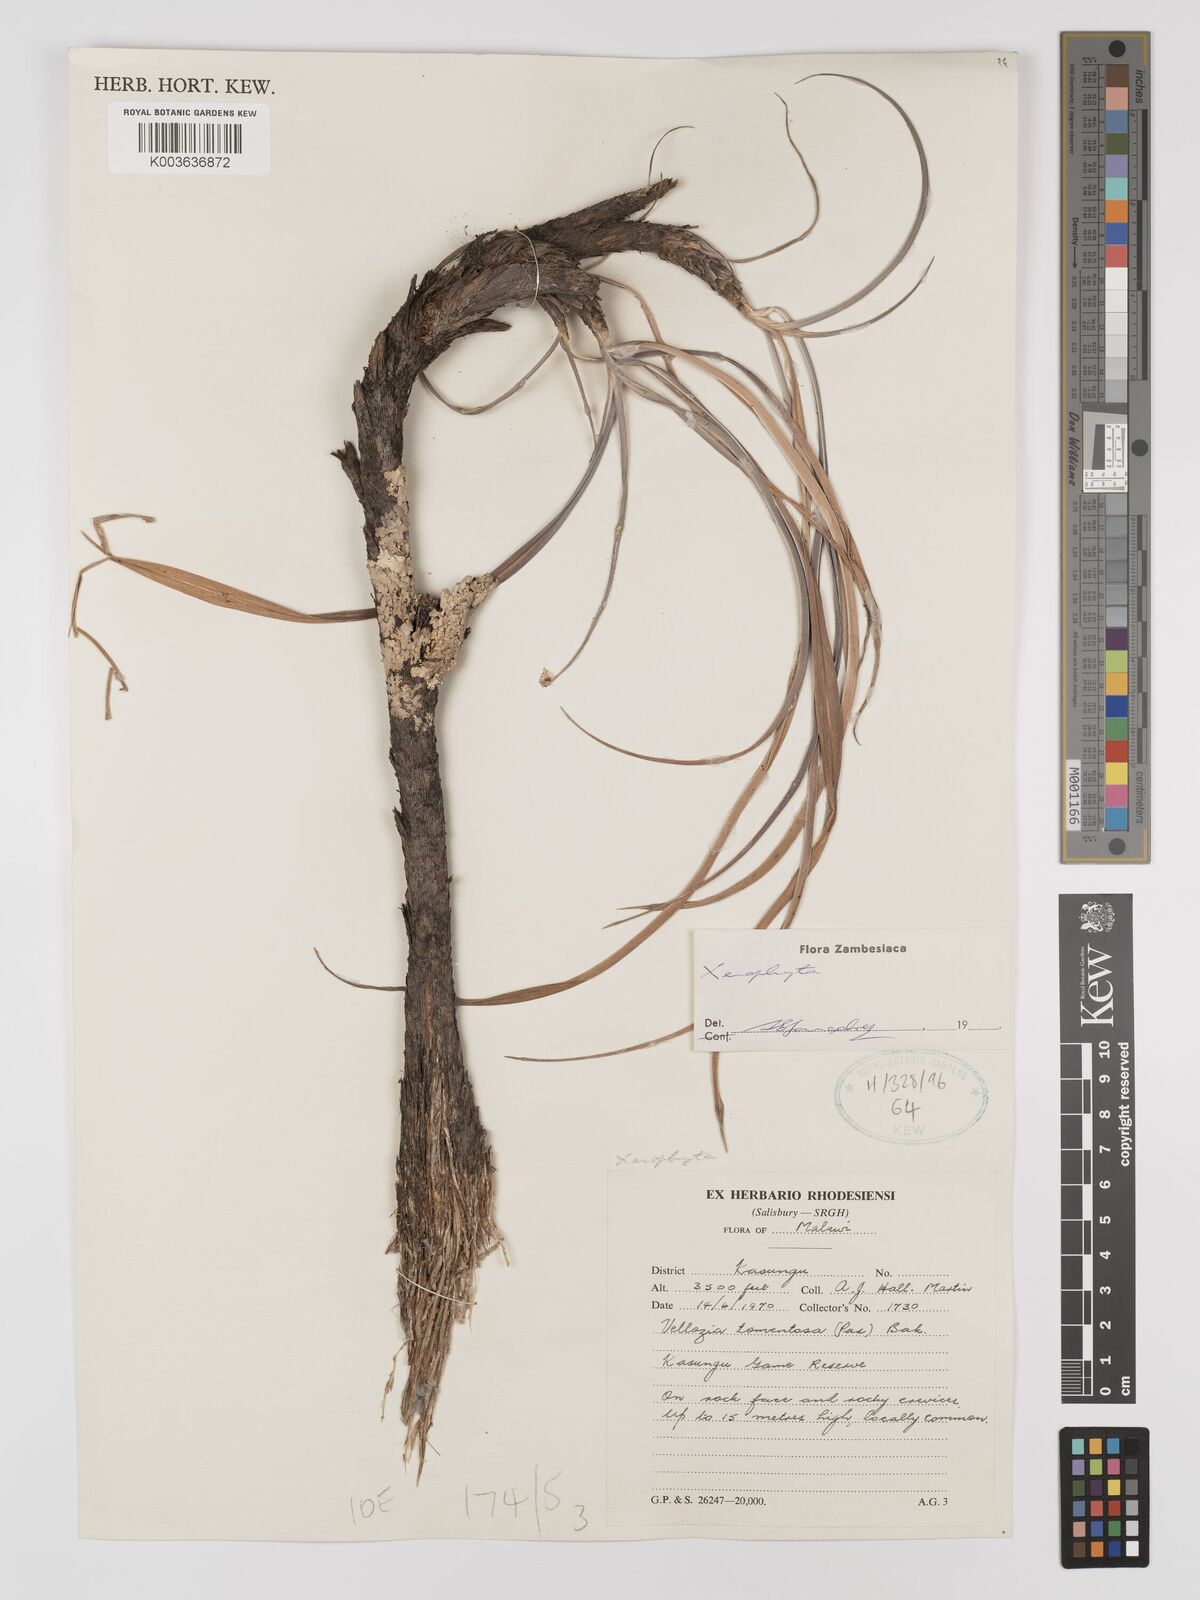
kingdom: Plantae
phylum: Tracheophyta
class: Liliopsida
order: Pandanales
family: Velloziaceae
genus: Xerophyta
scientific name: Xerophyta
